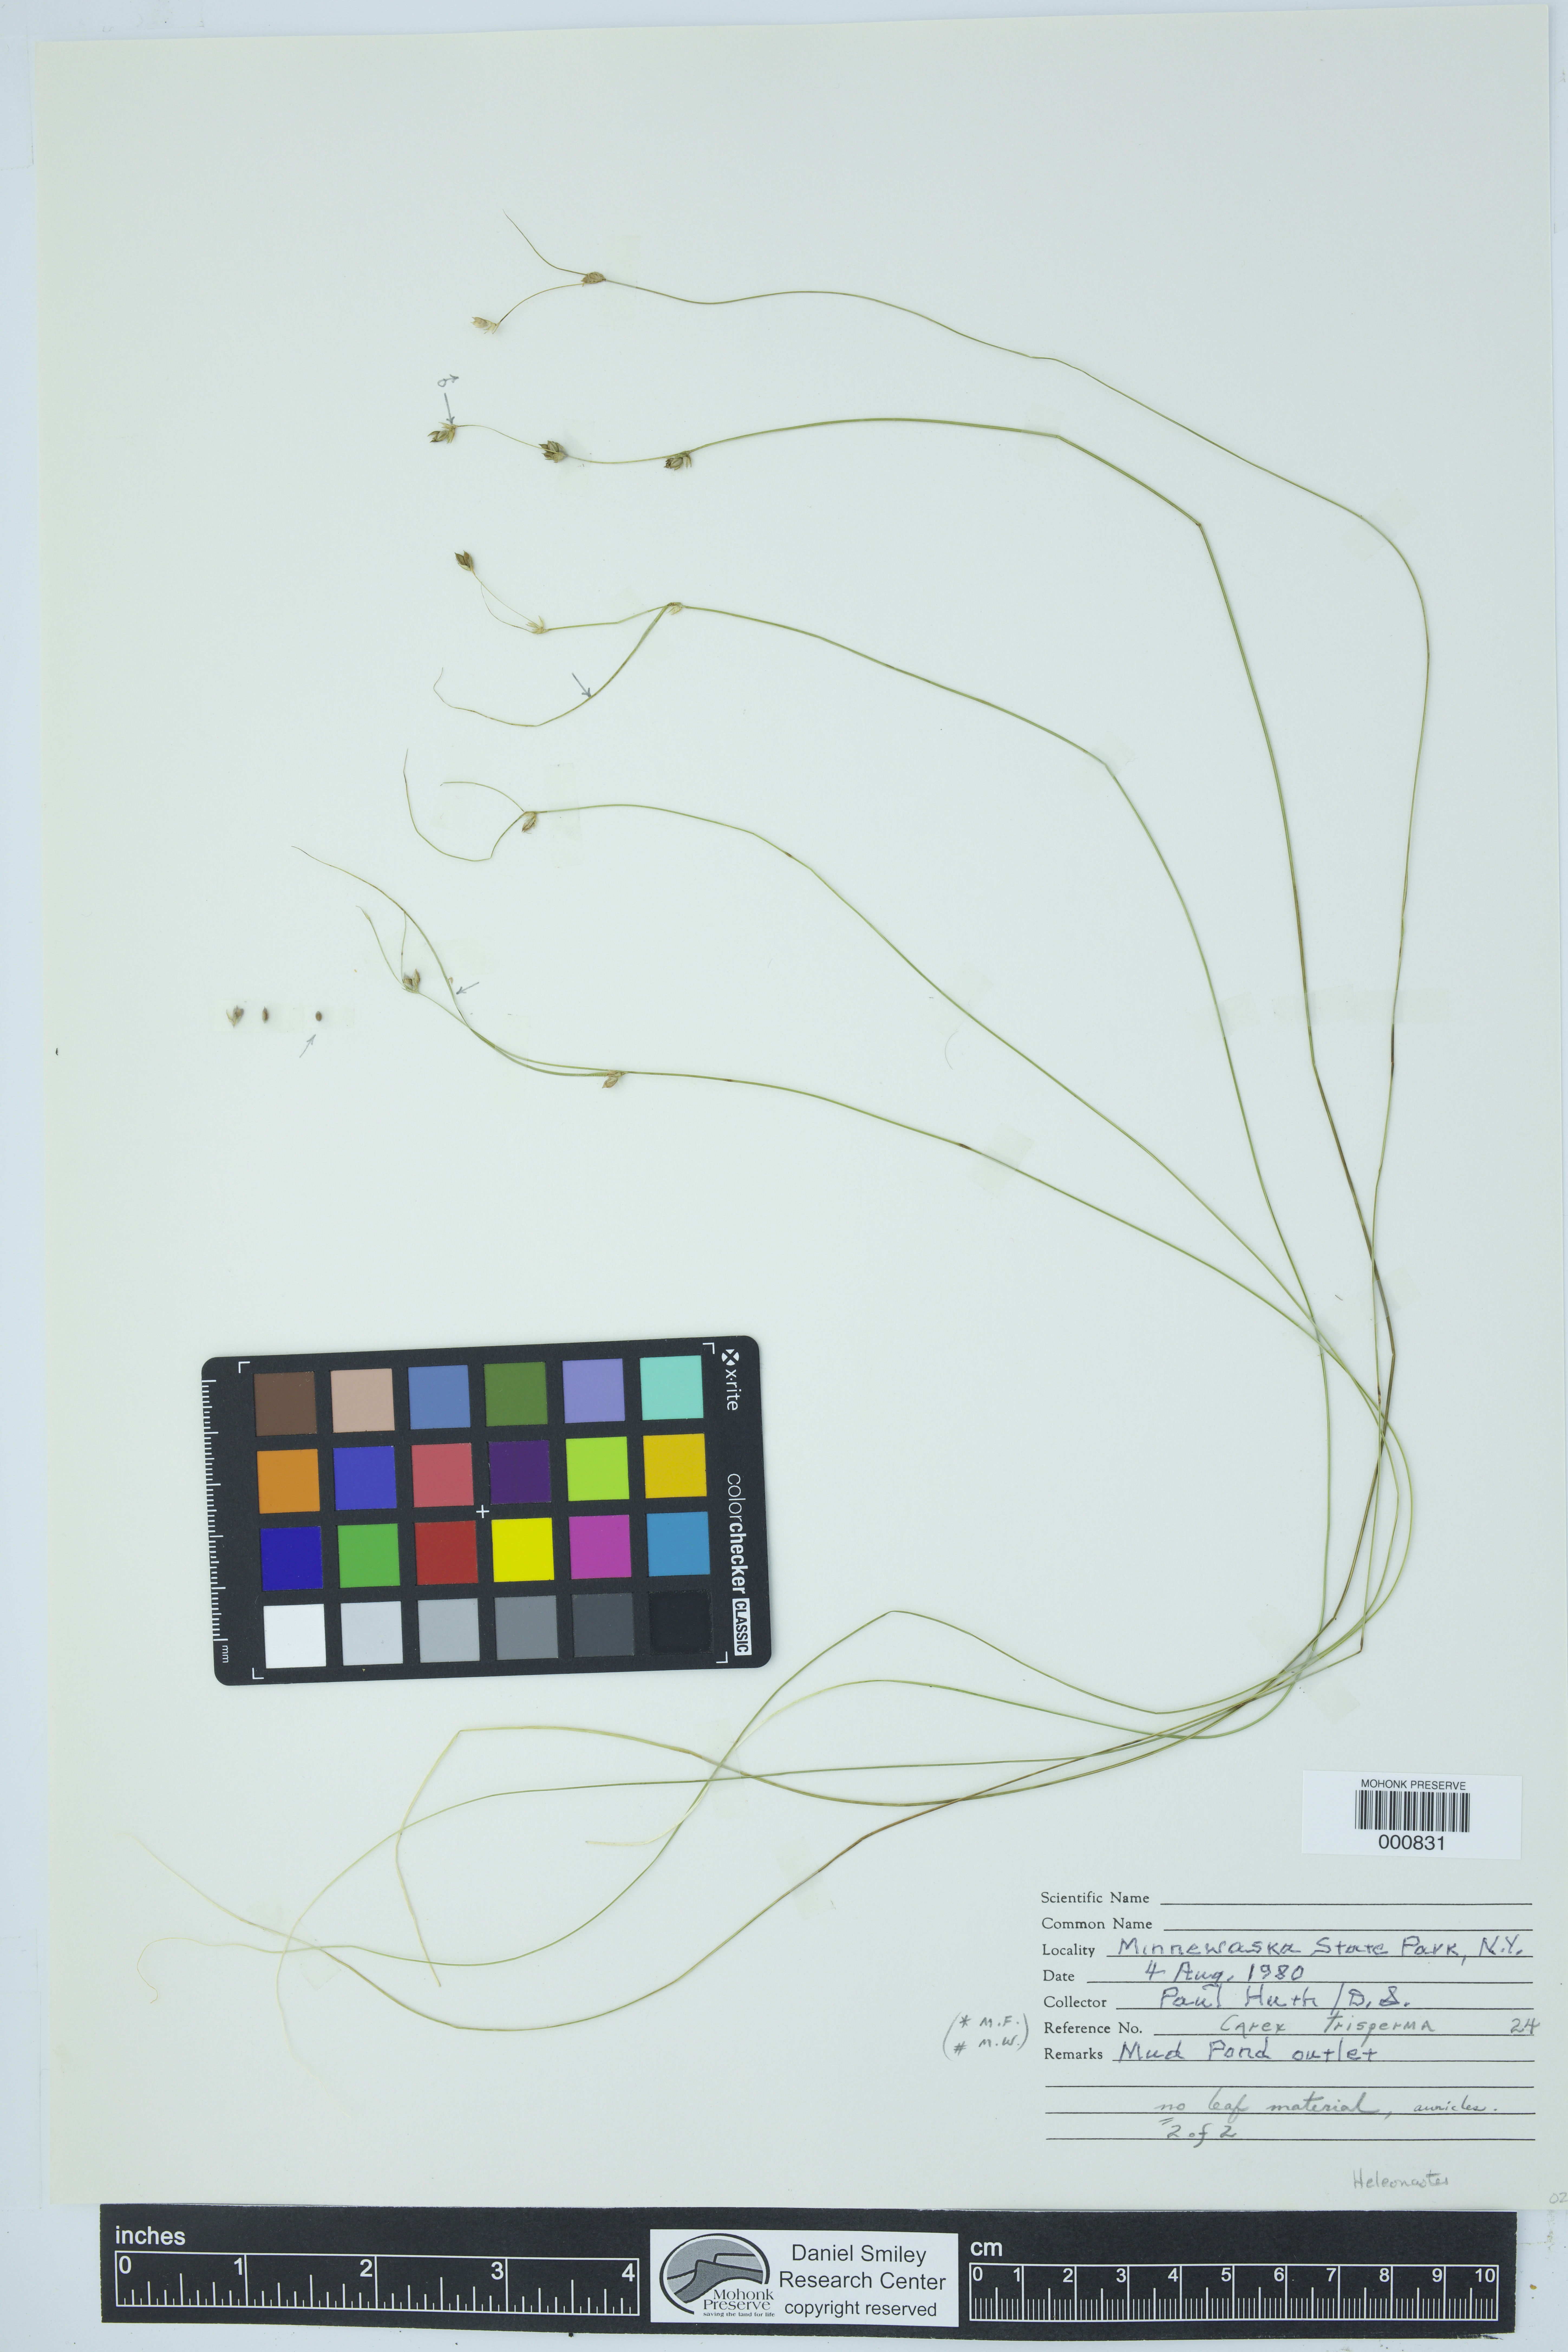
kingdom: Plantae
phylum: Tracheophyta
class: Liliopsida
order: Poales
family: Cyperaceae
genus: Carex
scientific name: Carex trisperma
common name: Three-seeded sedge
